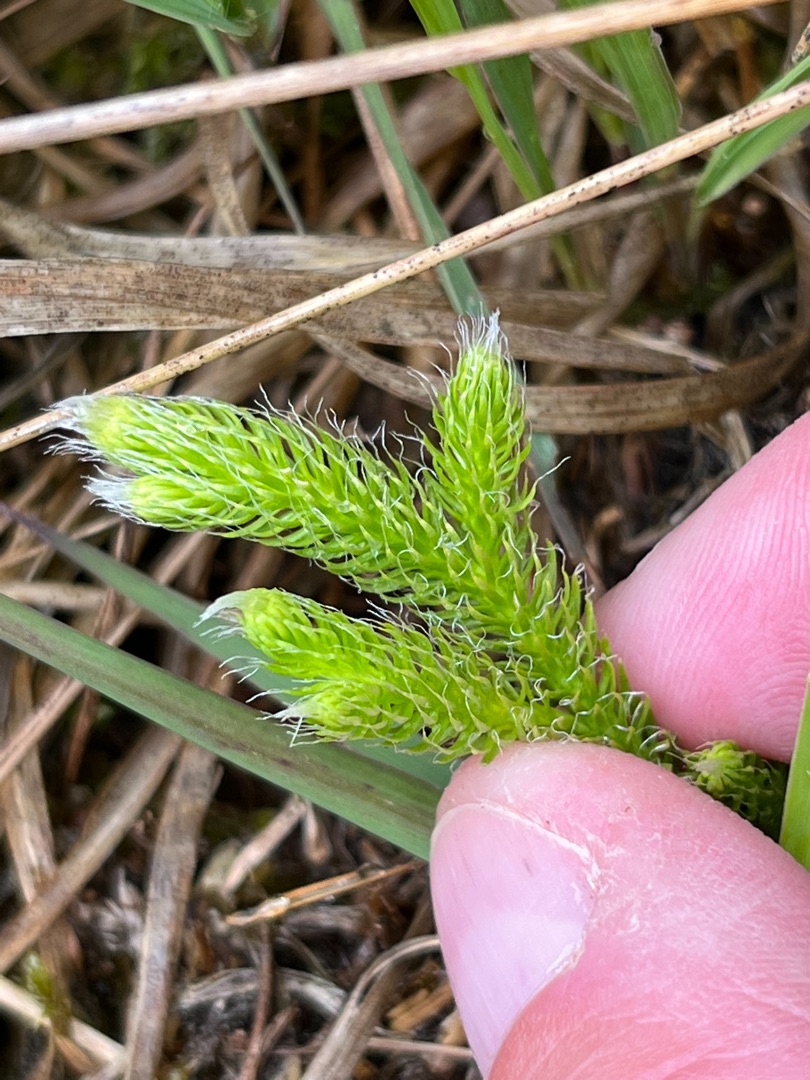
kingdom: Plantae
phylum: Tracheophyta
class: Lycopodiopsida
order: Lycopodiales
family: Lycopodiaceae
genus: Lycopodium
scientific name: Lycopodium clavatum
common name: Almindelig ulvefod
